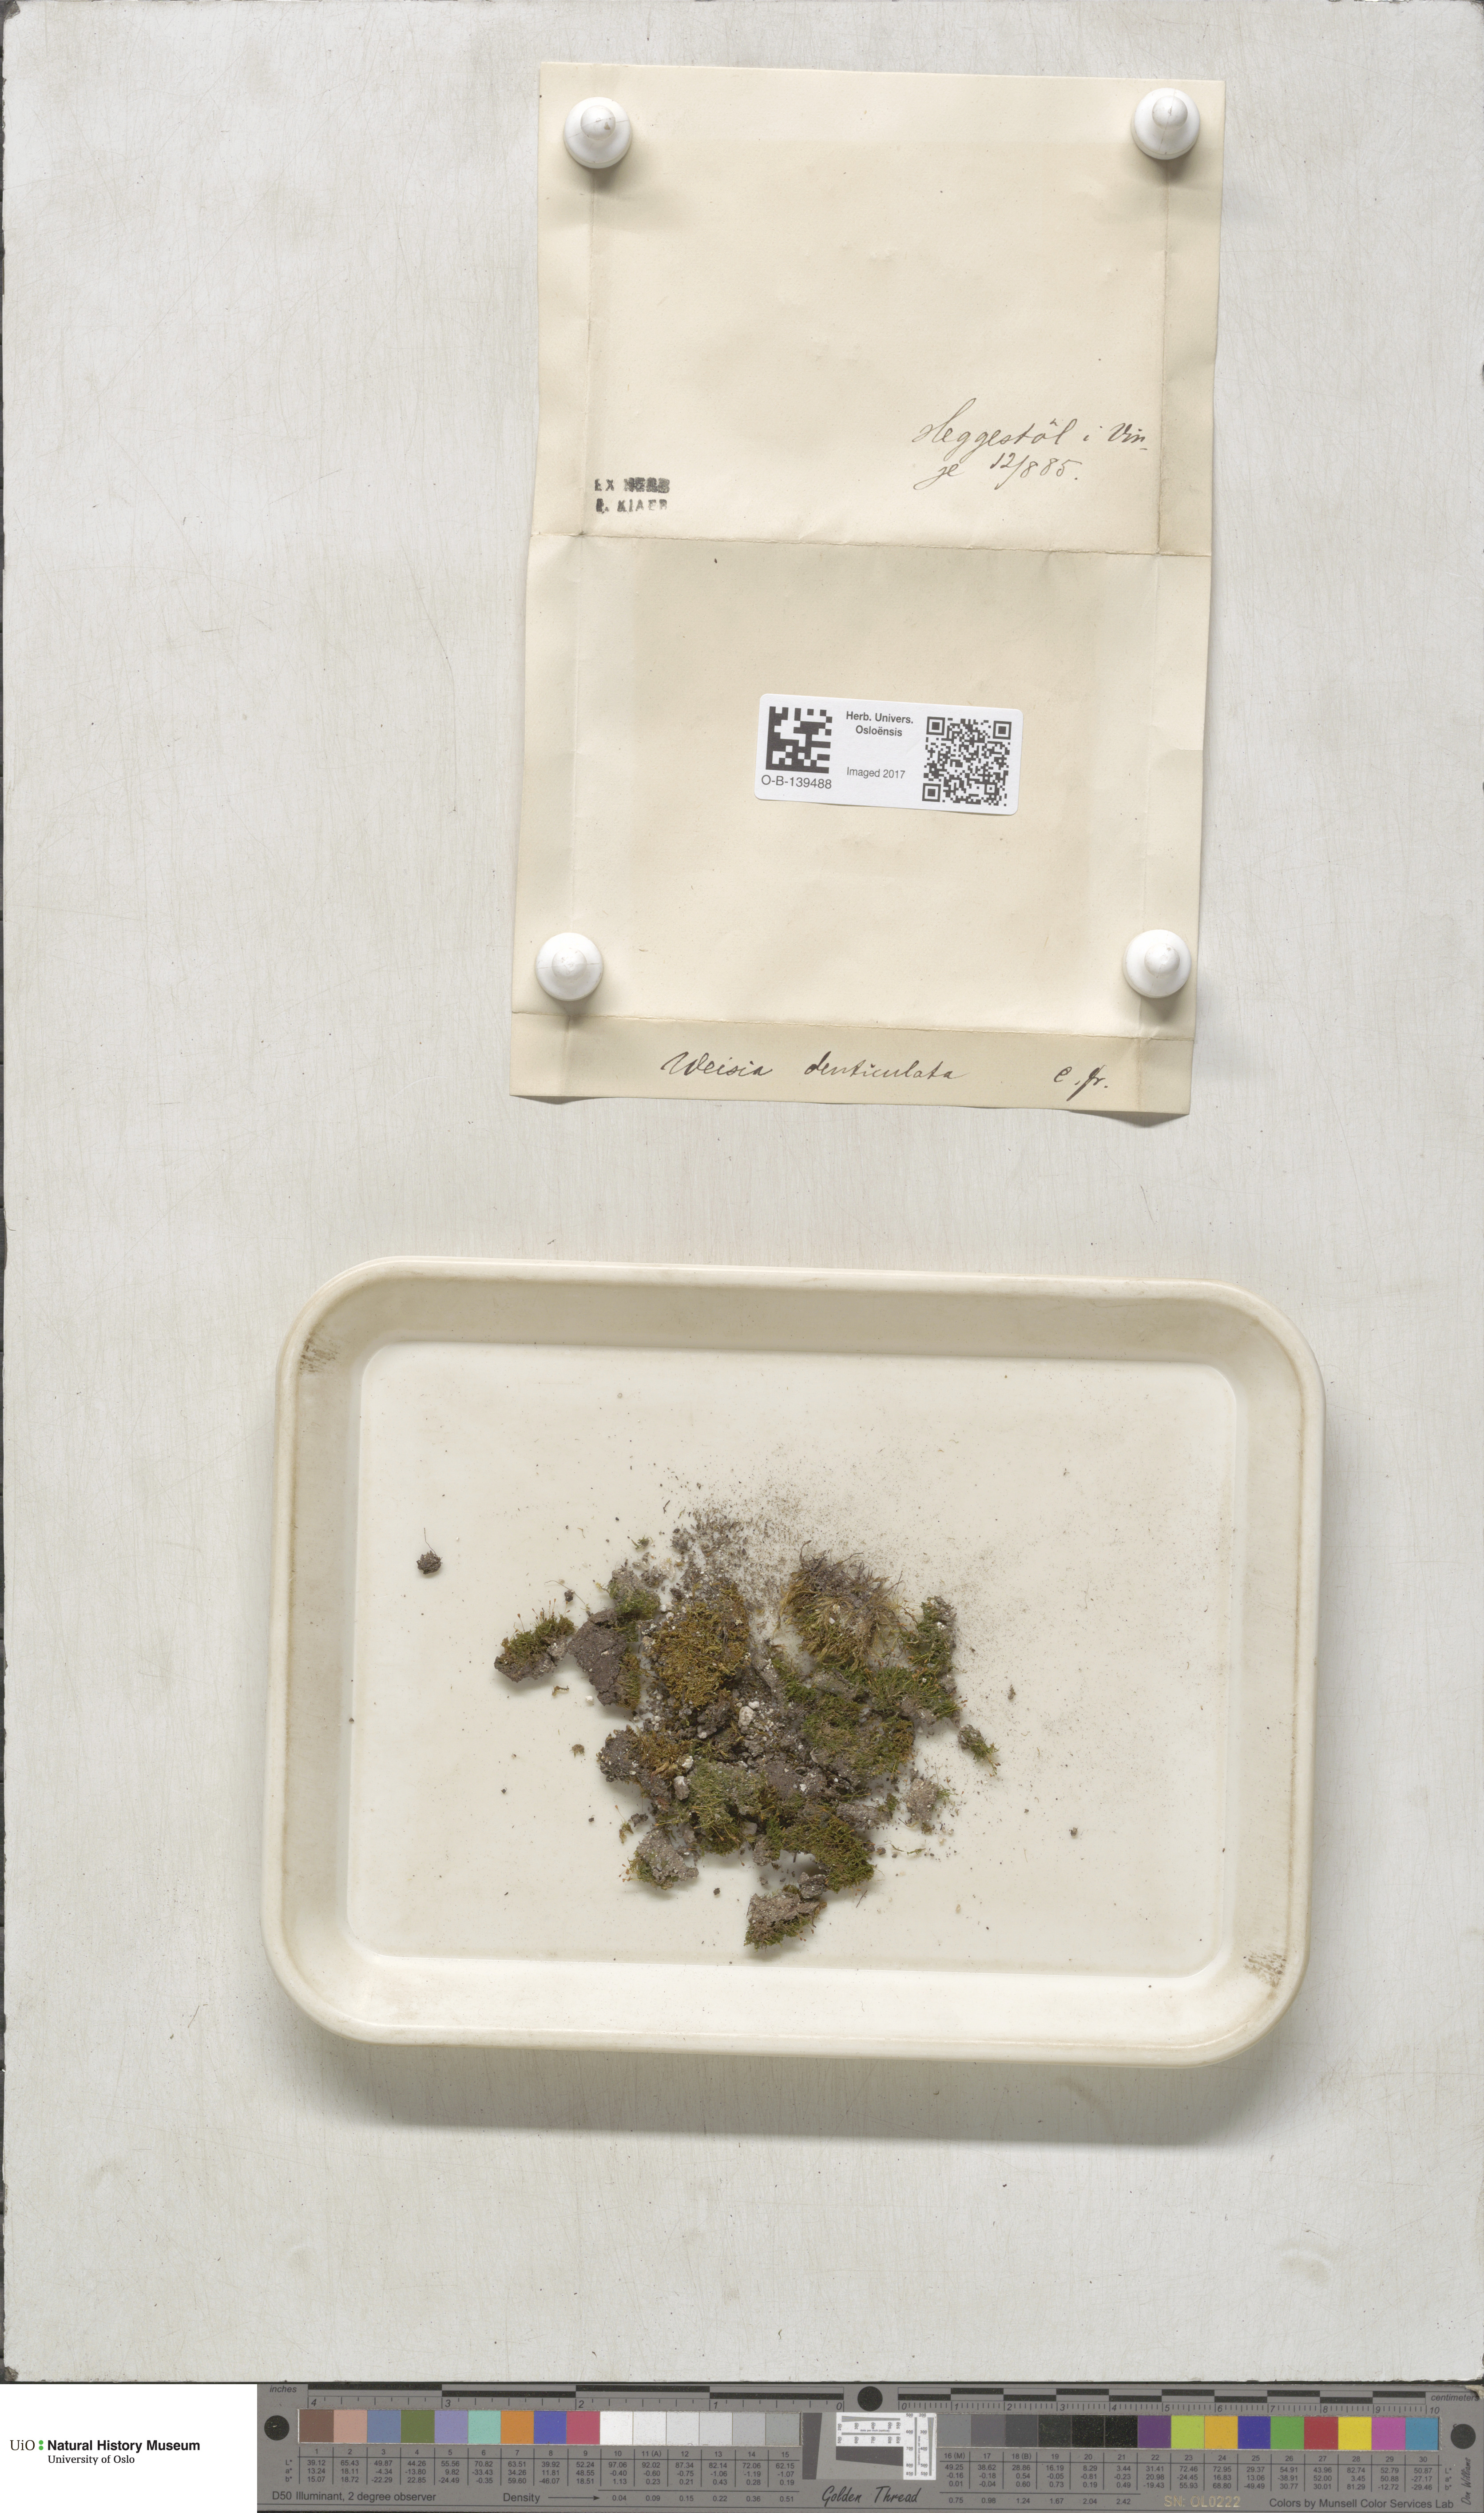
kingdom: Plantae
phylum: Bryophyta
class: Bryopsida
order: Dicranales
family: Rhabdoweisiaceae
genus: Rhabdoweisia
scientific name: Rhabdoweisia crispata
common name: Fine-toothed streak moss
